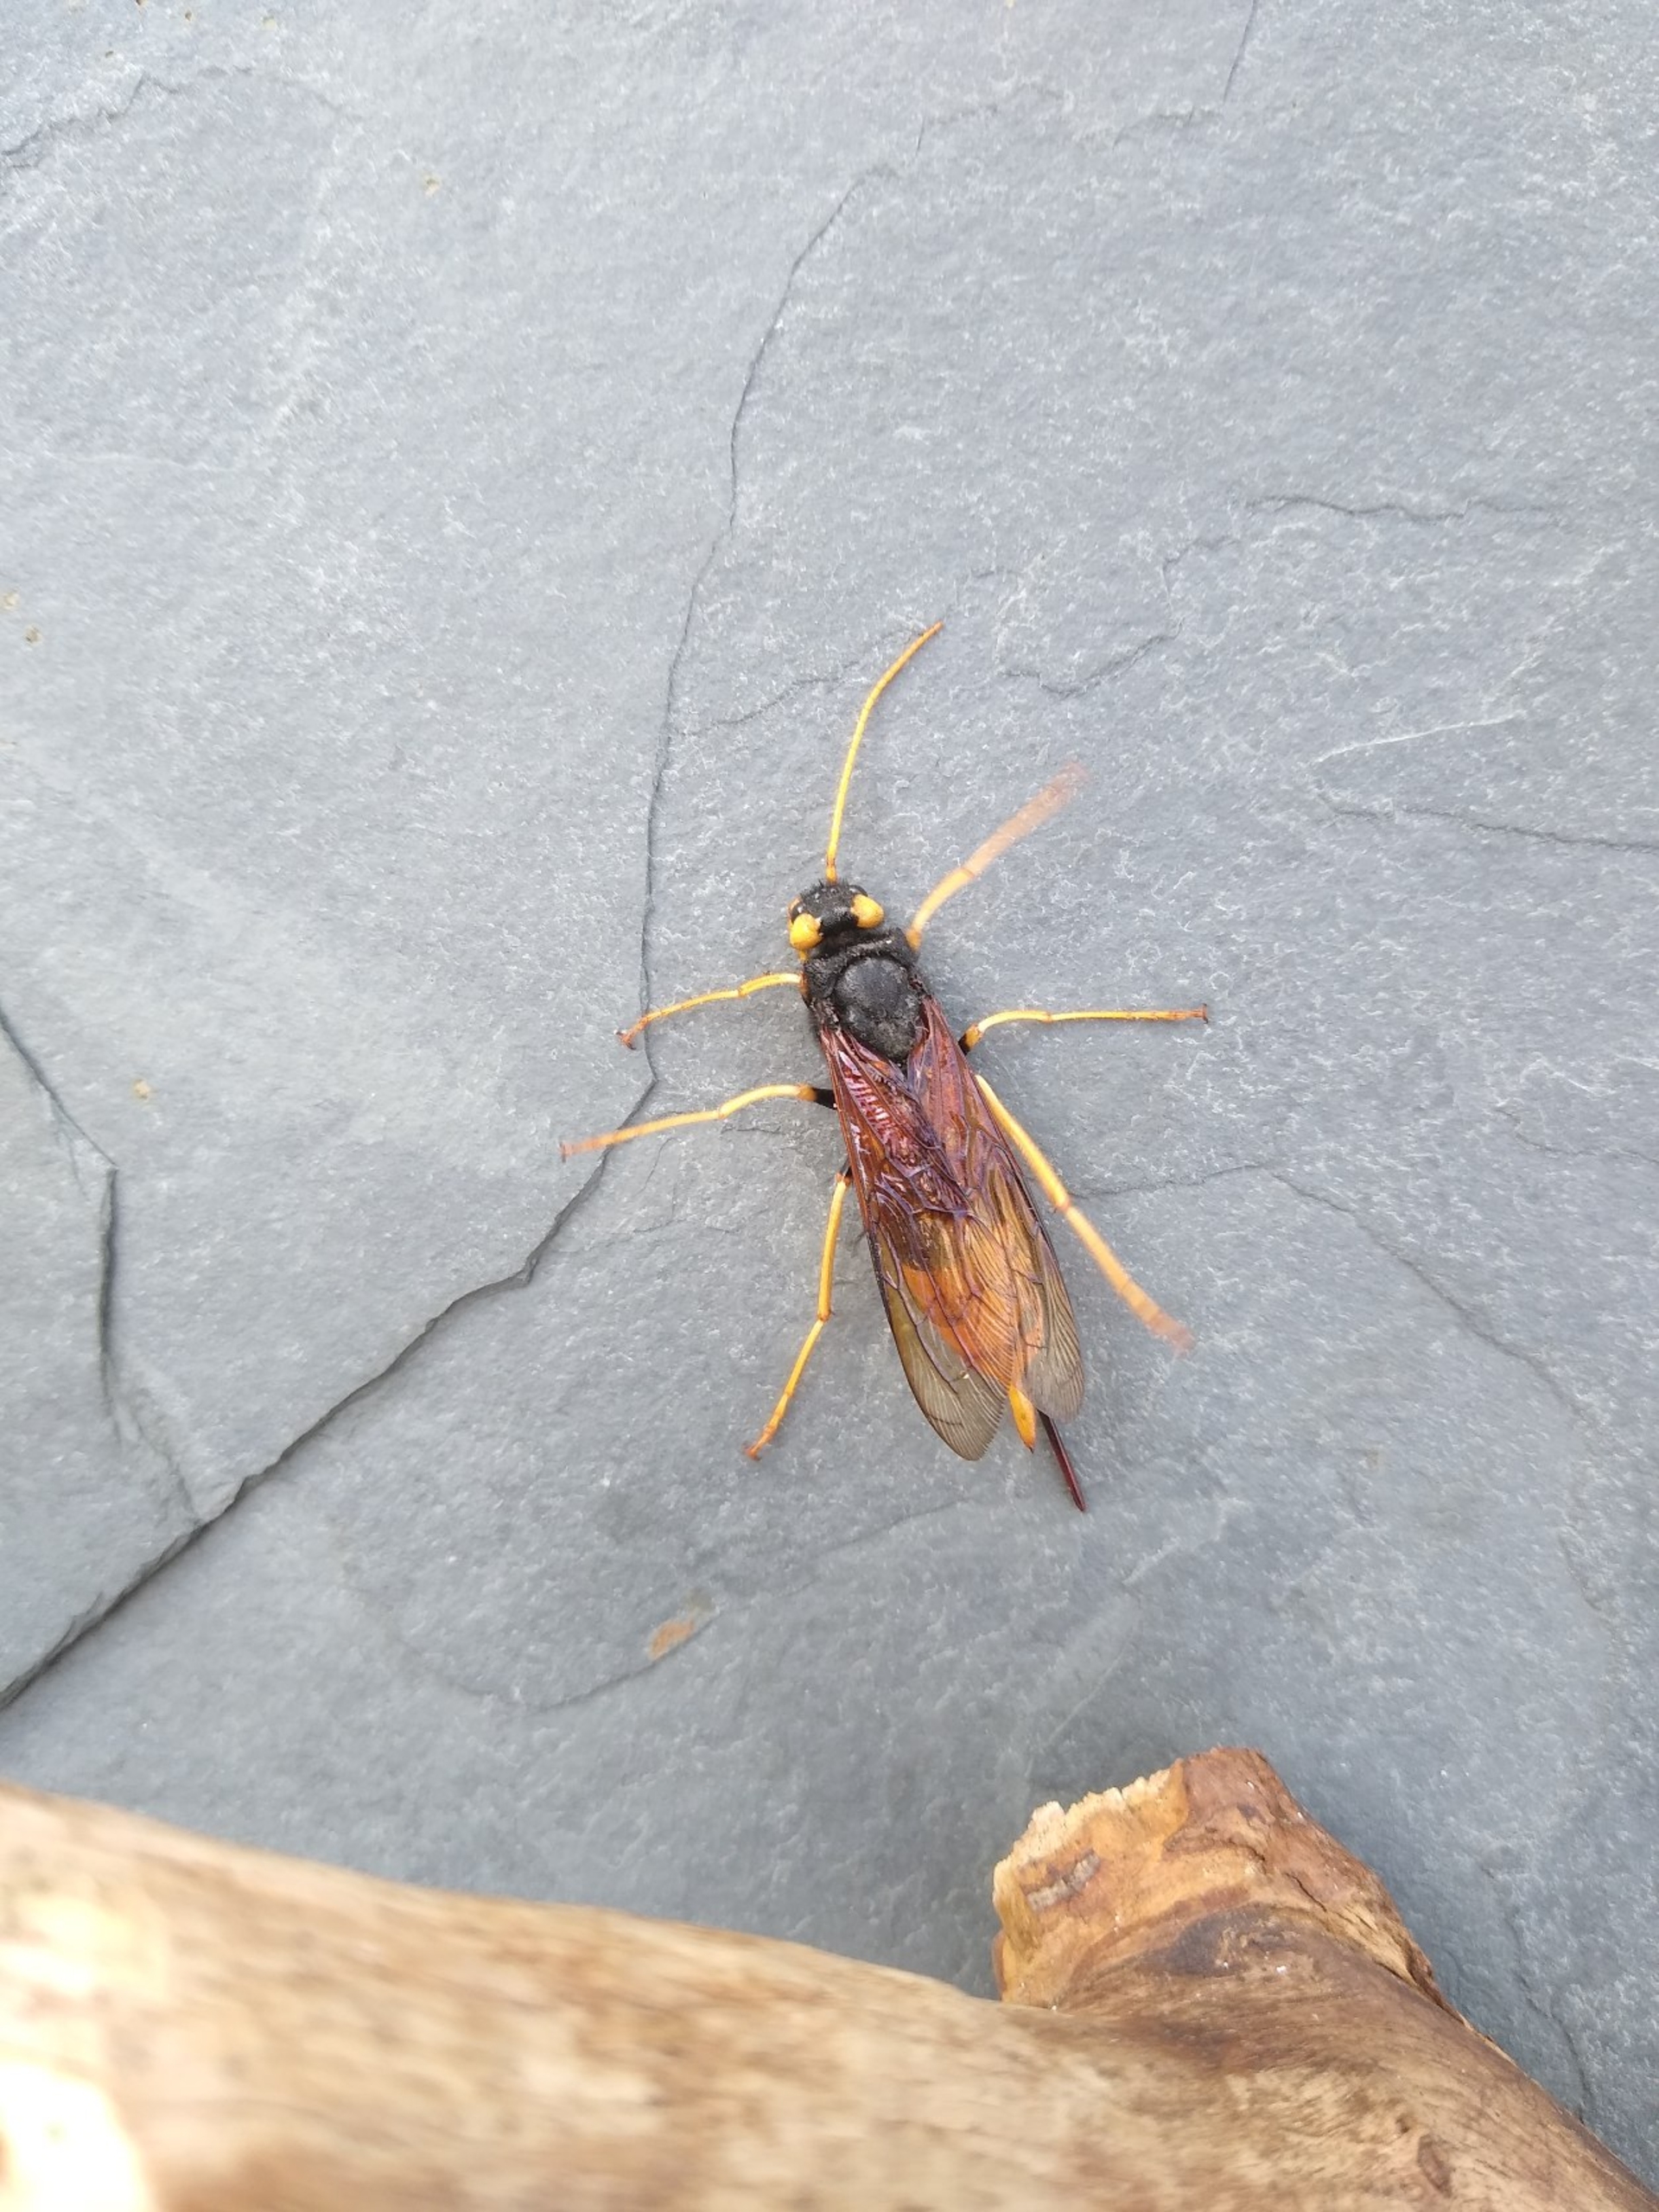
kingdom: Animalia
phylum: Arthropoda
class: Insecta
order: Hymenoptera
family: Siricidae
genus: Urocerus
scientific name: Urocerus gigas
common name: Kæmpetræhveps
